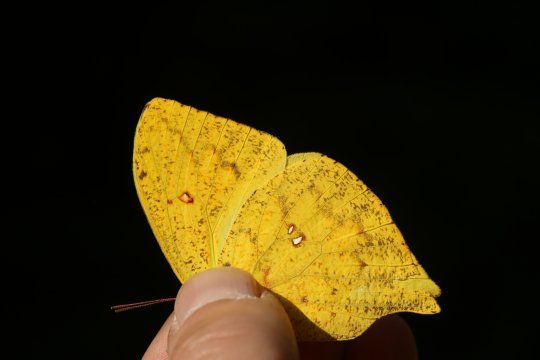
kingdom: Animalia
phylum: Arthropoda
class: Insecta
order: Lepidoptera
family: Pieridae
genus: Phoebis
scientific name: Phoebis neocypris
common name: Tailed Sulphur
